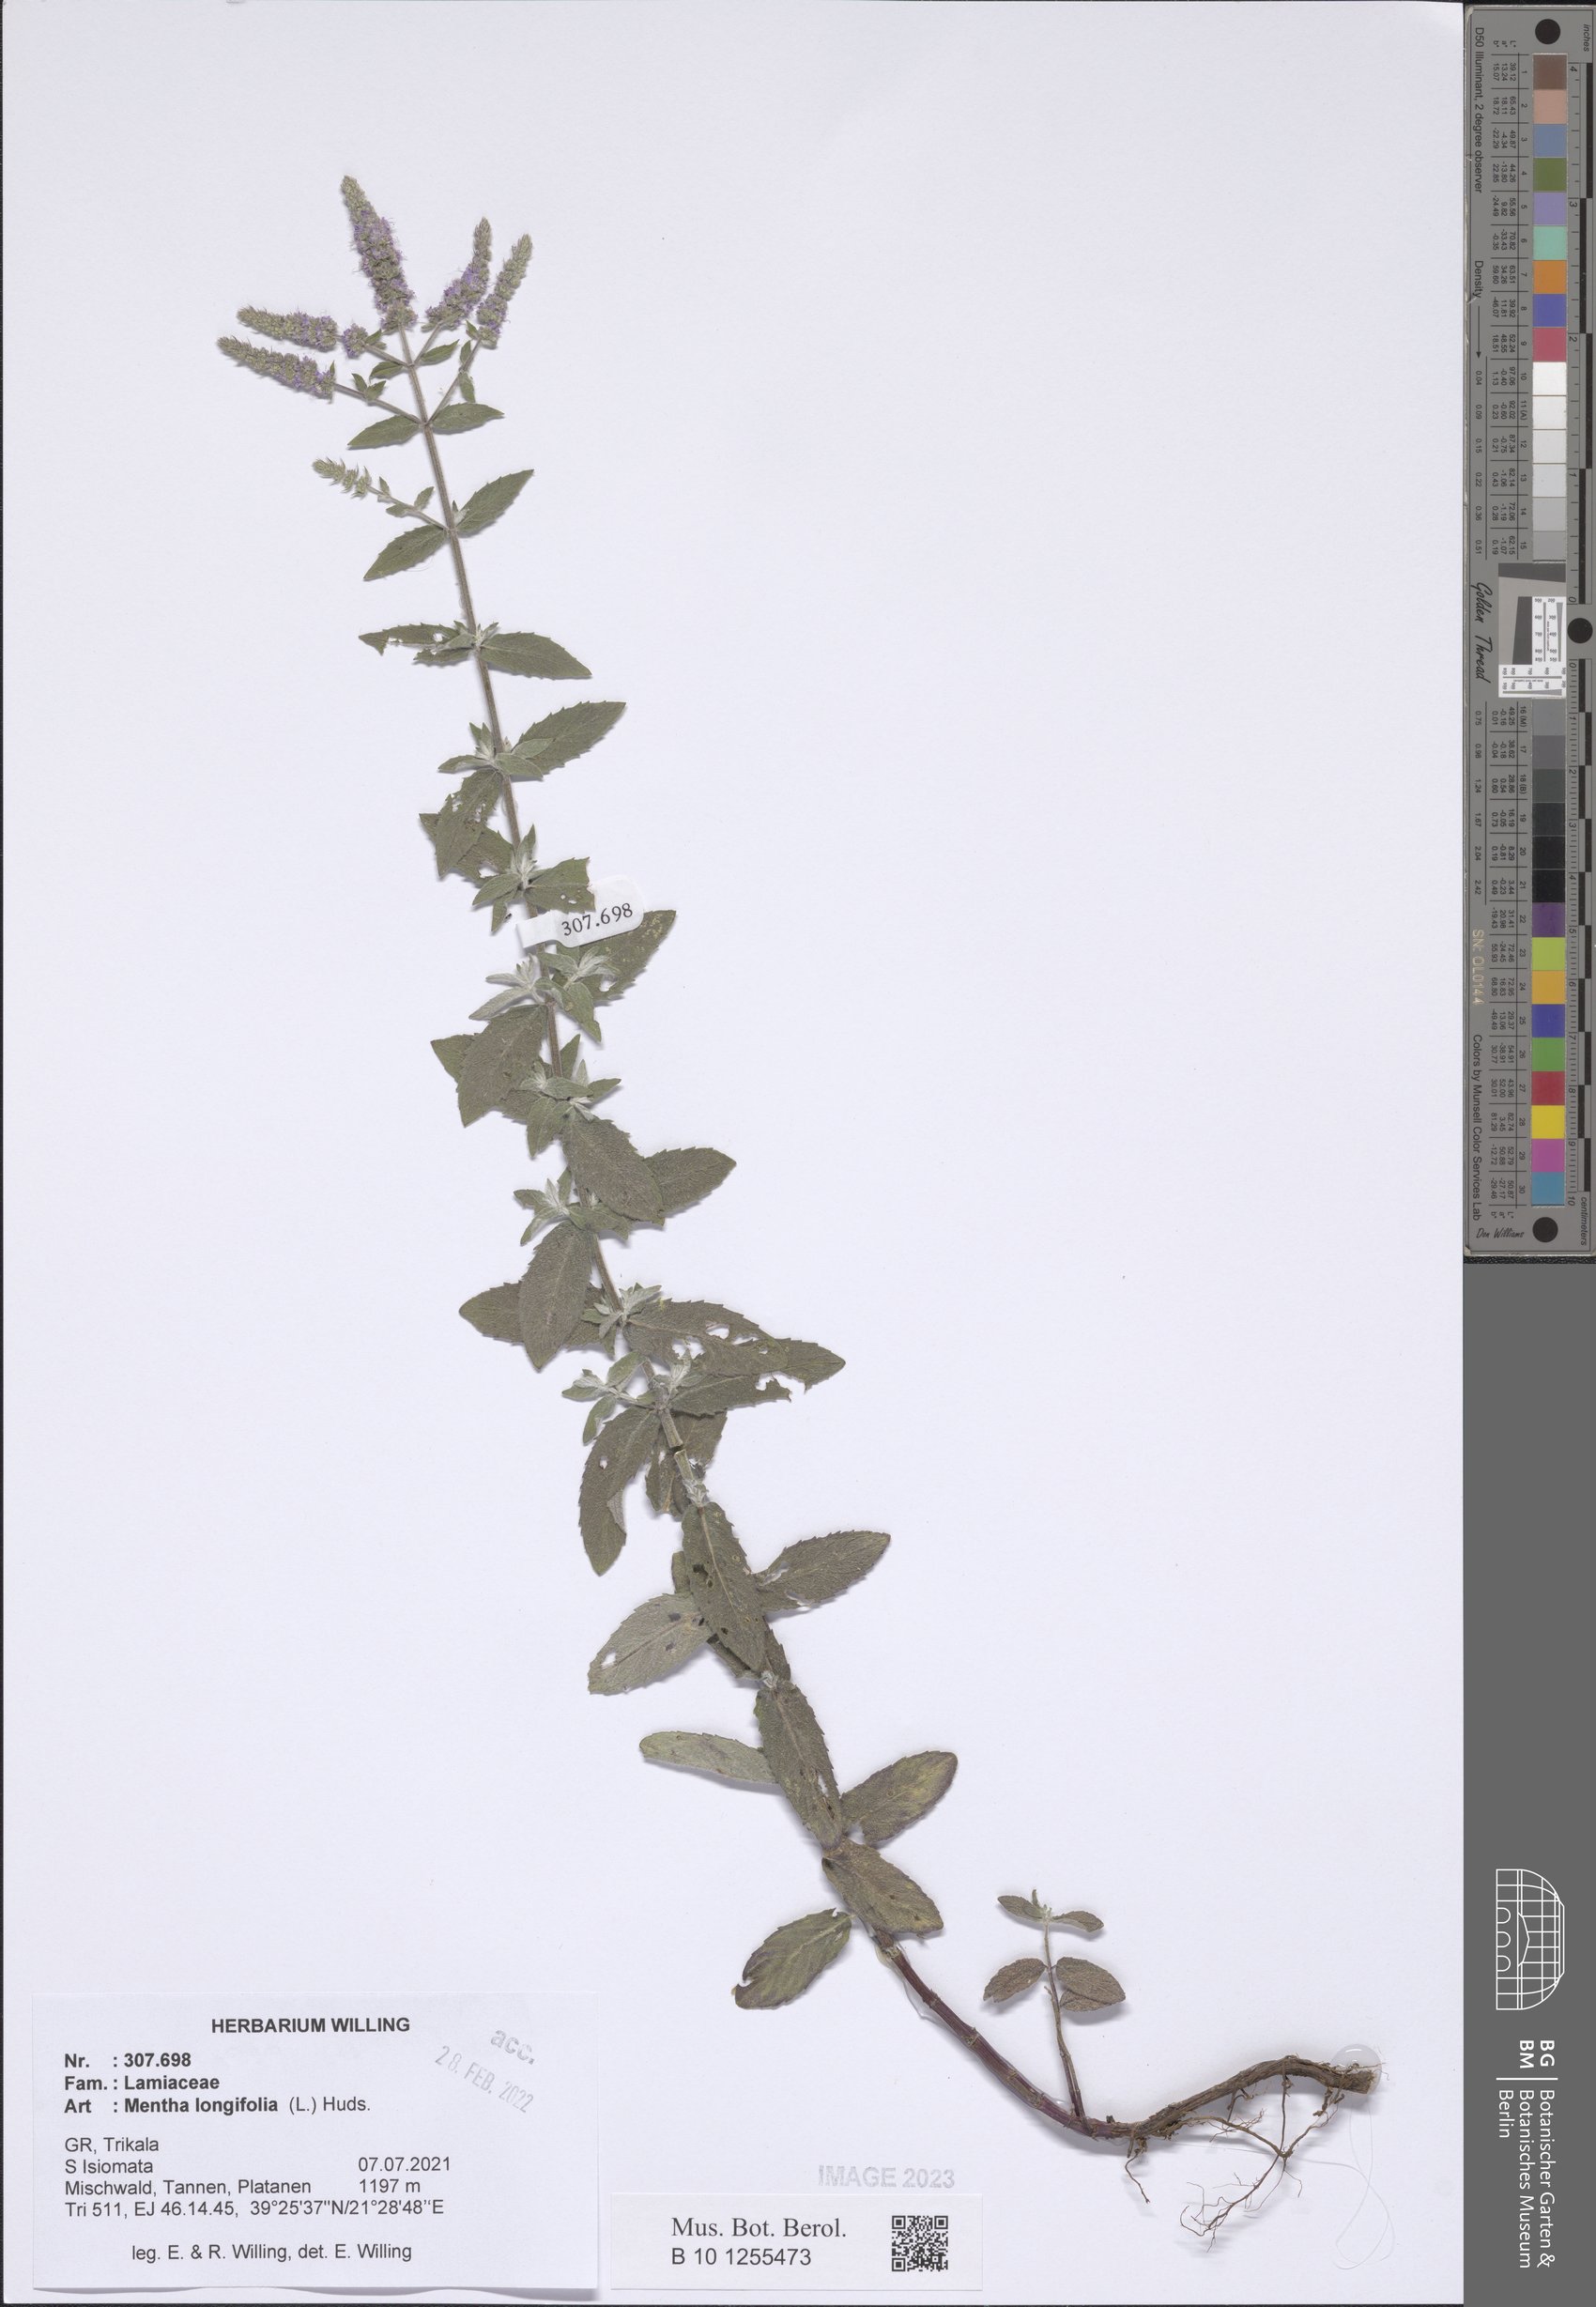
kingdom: Plantae
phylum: Tracheophyta
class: Magnoliopsida
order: Lamiales
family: Lamiaceae
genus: Mentha
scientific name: Mentha longifolia
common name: Horse mint
